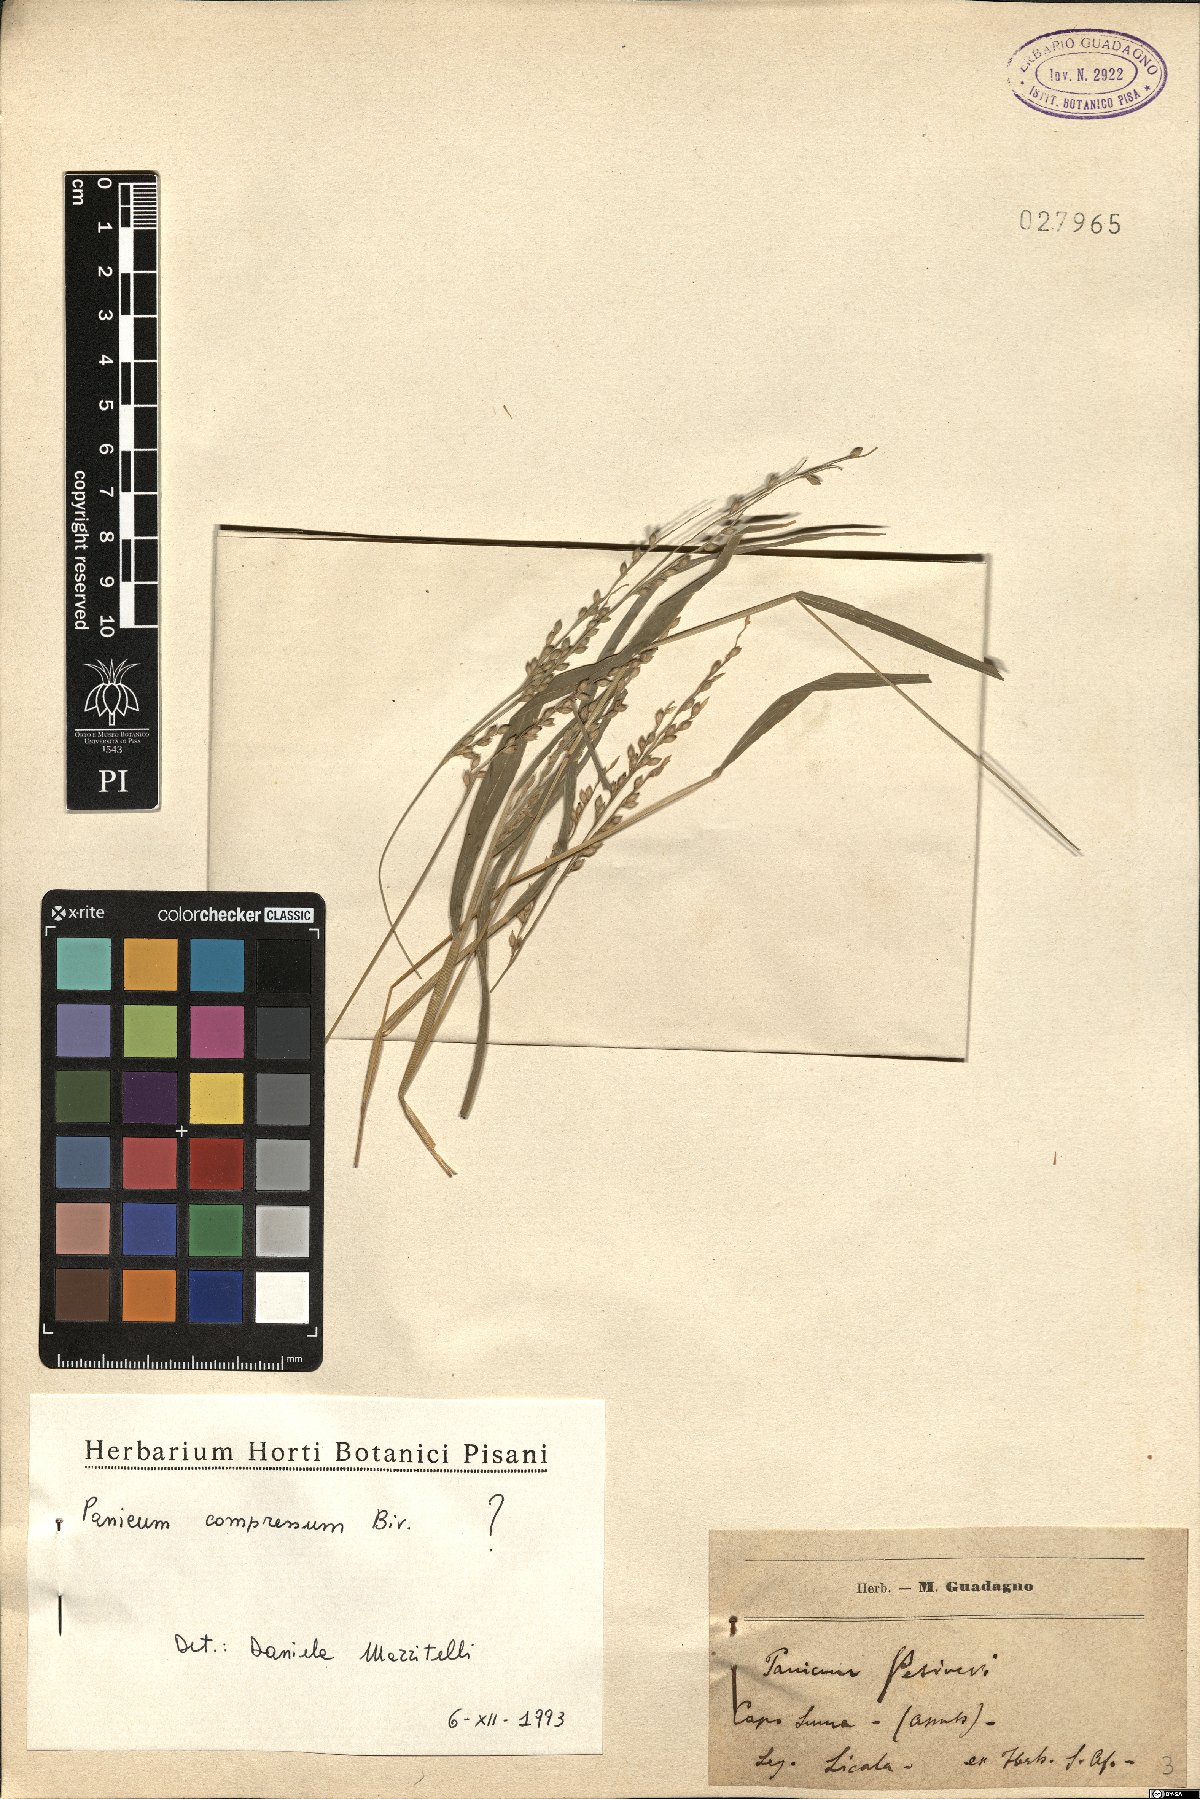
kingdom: Plantae
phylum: Tracheophyta
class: Liliopsida
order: Poales
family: Poaceae
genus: Megathyrsus
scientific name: Megathyrsus maximus
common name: Guineagrass
